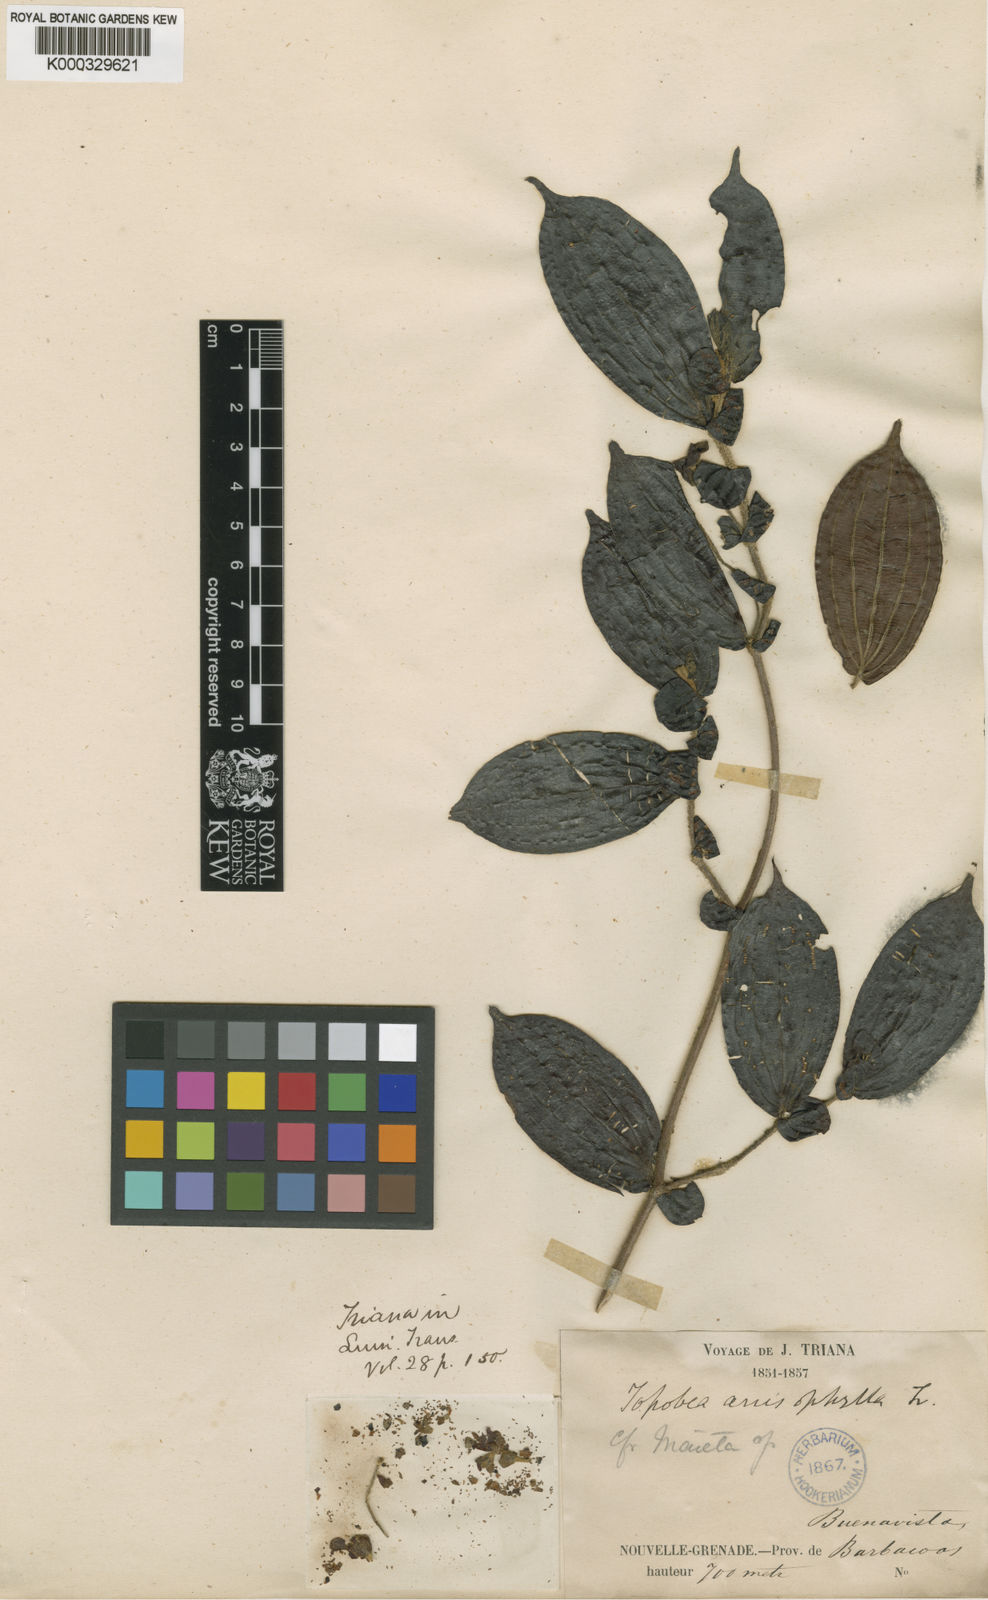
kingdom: Plantae
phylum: Tracheophyta
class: Magnoliopsida
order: Myrtales
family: Melastomataceae
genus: Blakea
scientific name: Blakea anisophylla
